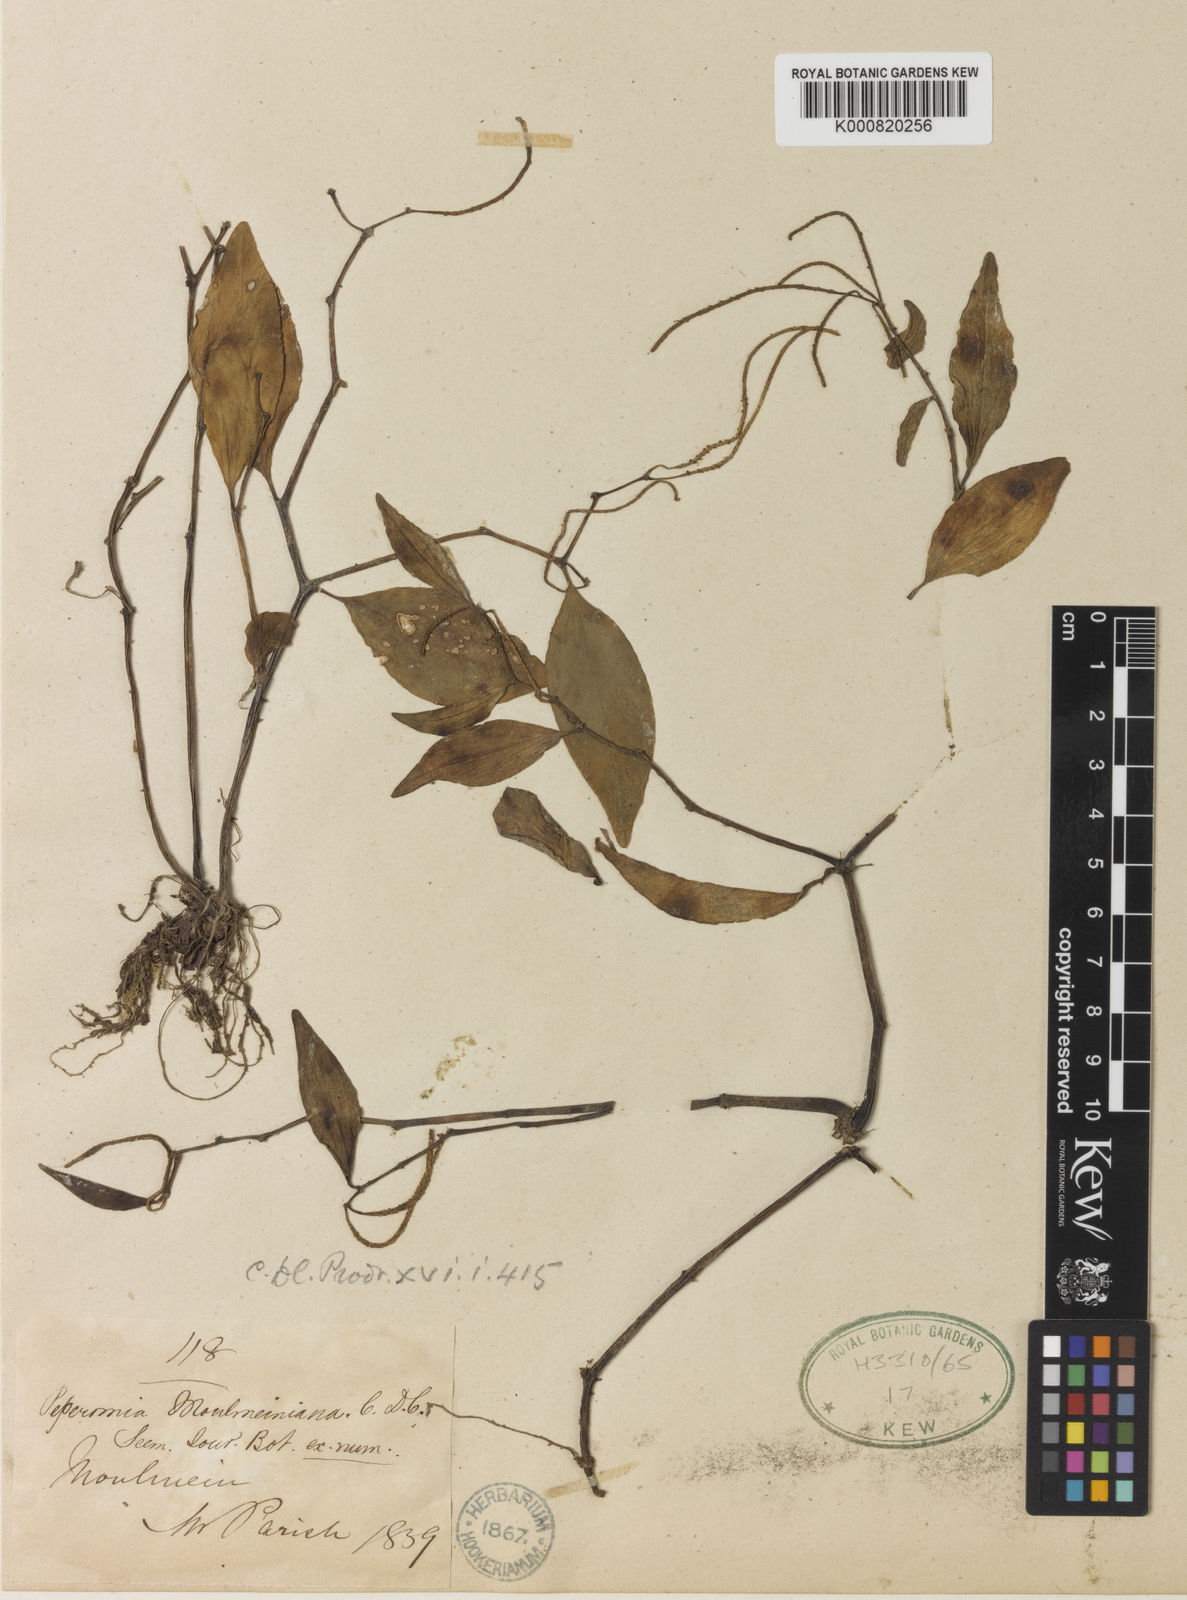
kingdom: Plantae
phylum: Tracheophyta
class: Magnoliopsida
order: Piperales
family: Piperaceae
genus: Peperomia
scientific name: Peperomia moulmeiniana
